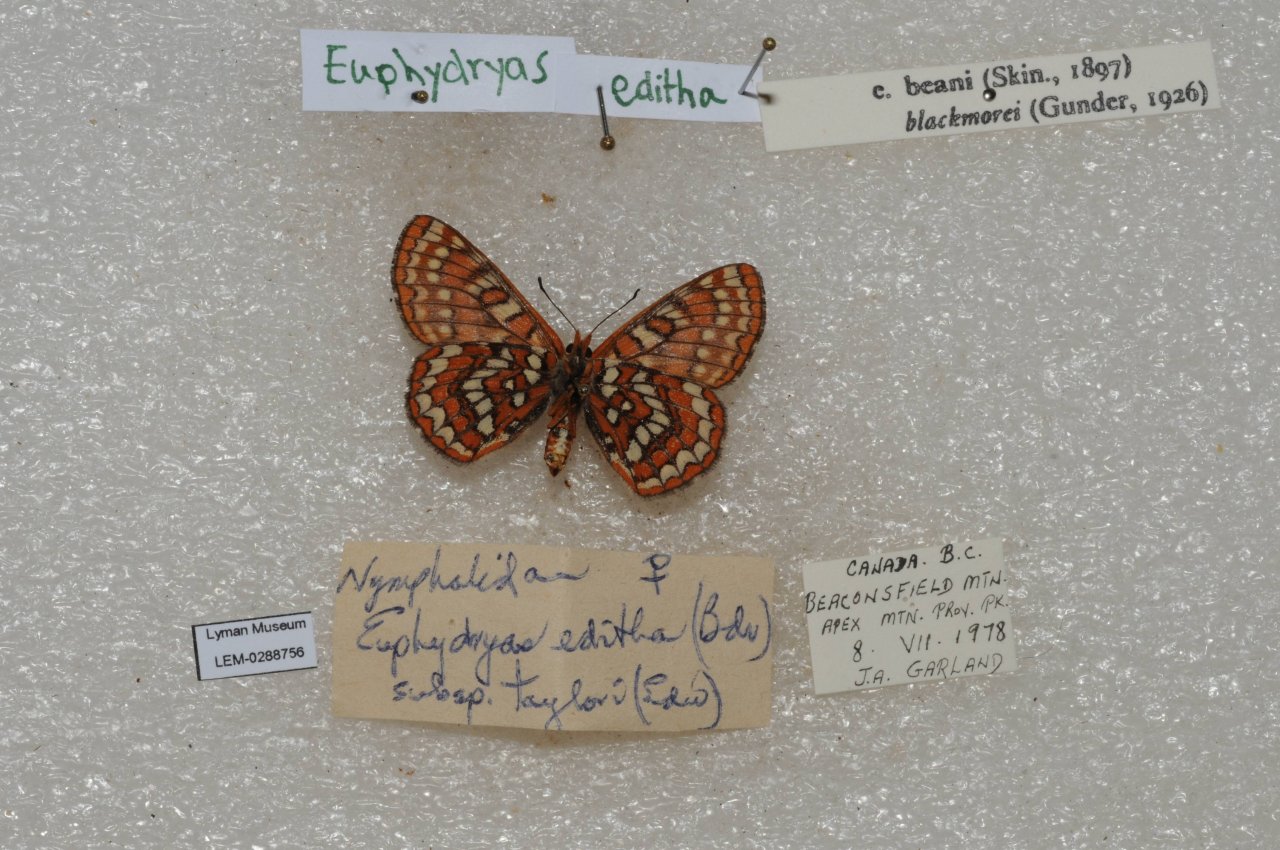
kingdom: Animalia
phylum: Arthropoda
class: Insecta
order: Lepidoptera
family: Nymphalidae
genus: Occidryas
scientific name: Occidryas editha
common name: Edith's Checkerspot
